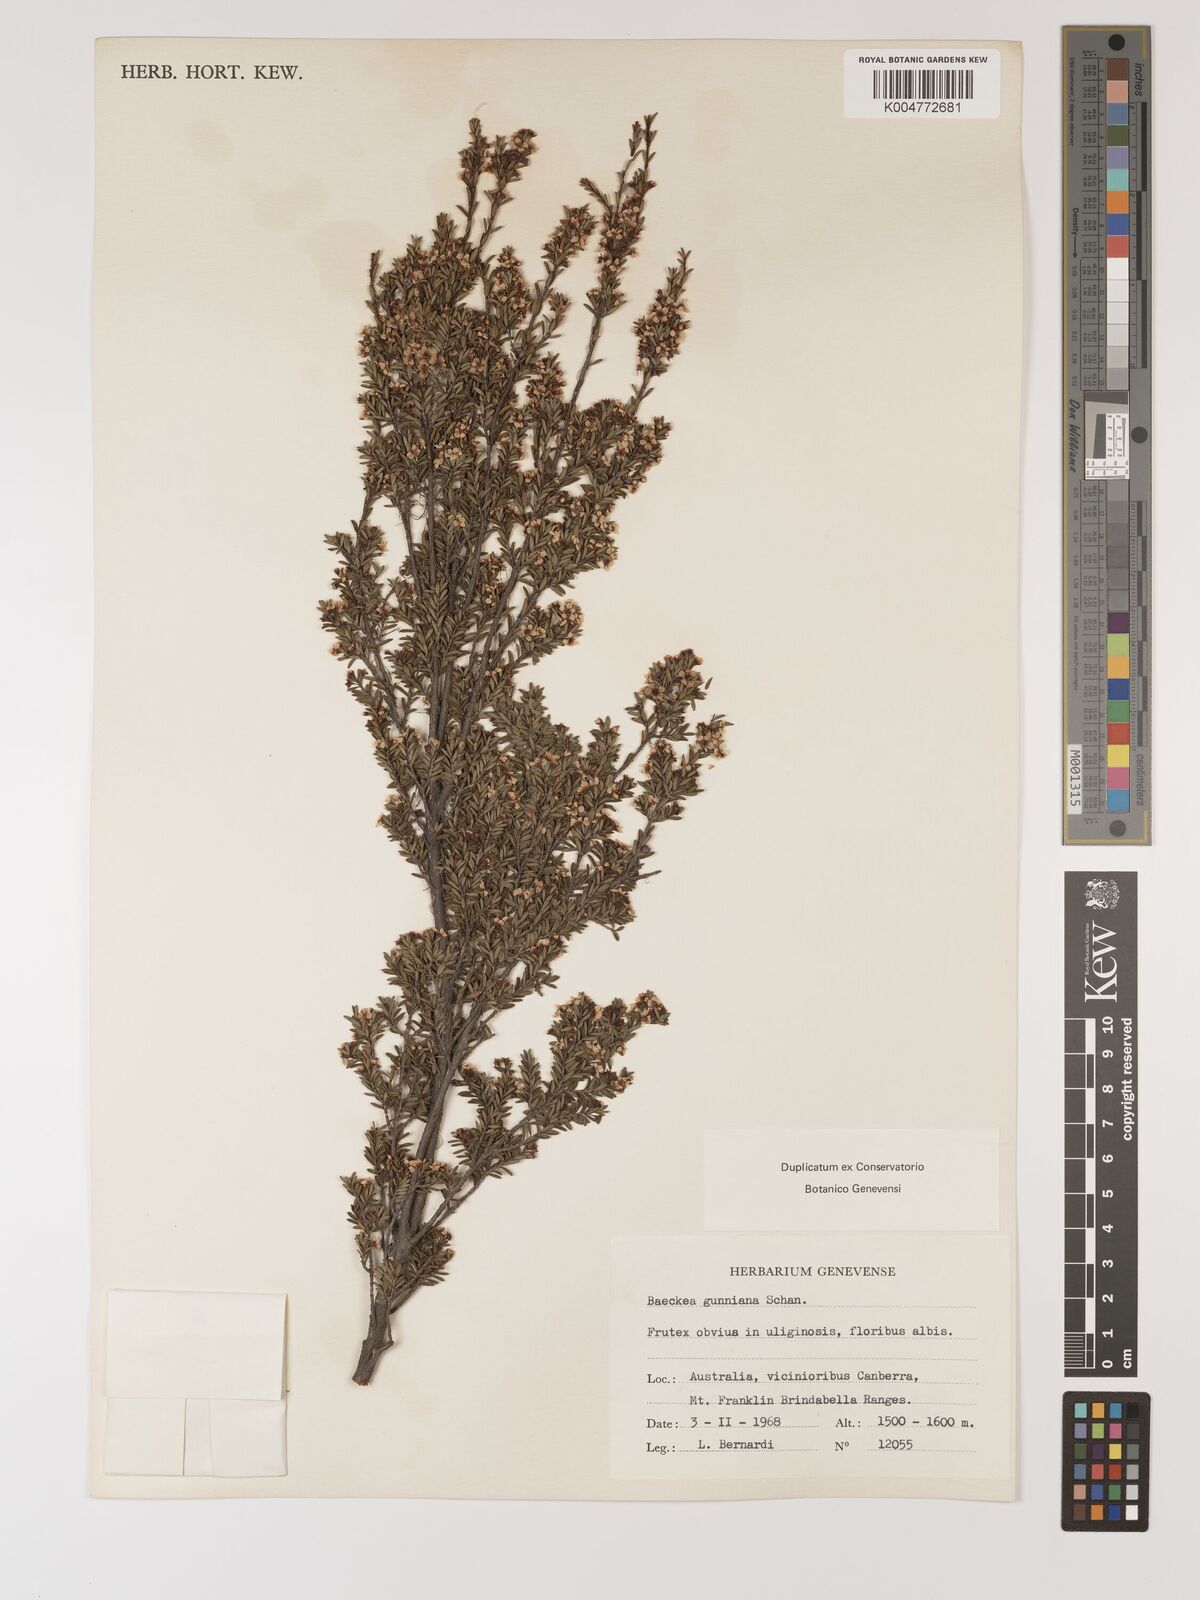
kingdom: Plantae
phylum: Tracheophyta
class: Magnoliopsida
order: Myrtales
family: Myrtaceae
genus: Baeckea
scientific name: Baeckea gunniana
